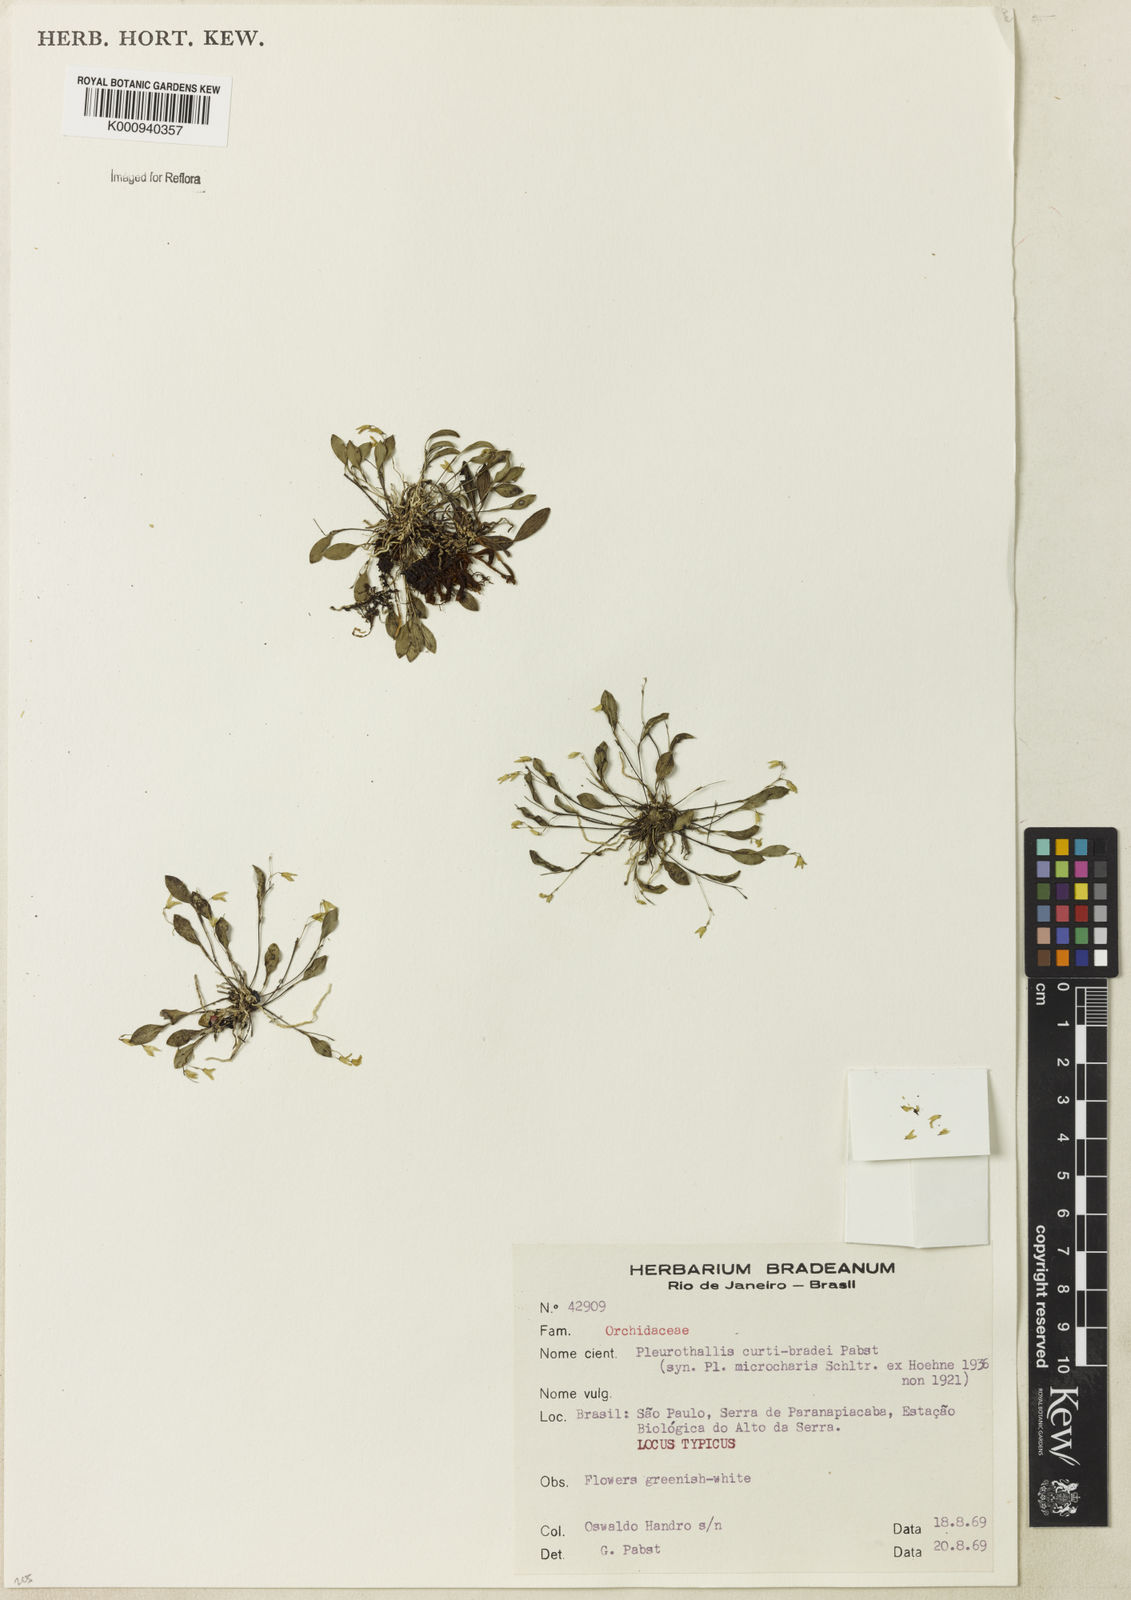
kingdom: Plantae
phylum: Tracheophyta
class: Liliopsida
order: Asparagales
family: Orchidaceae
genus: Pabstiella
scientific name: Pabstiella curti-bradei
